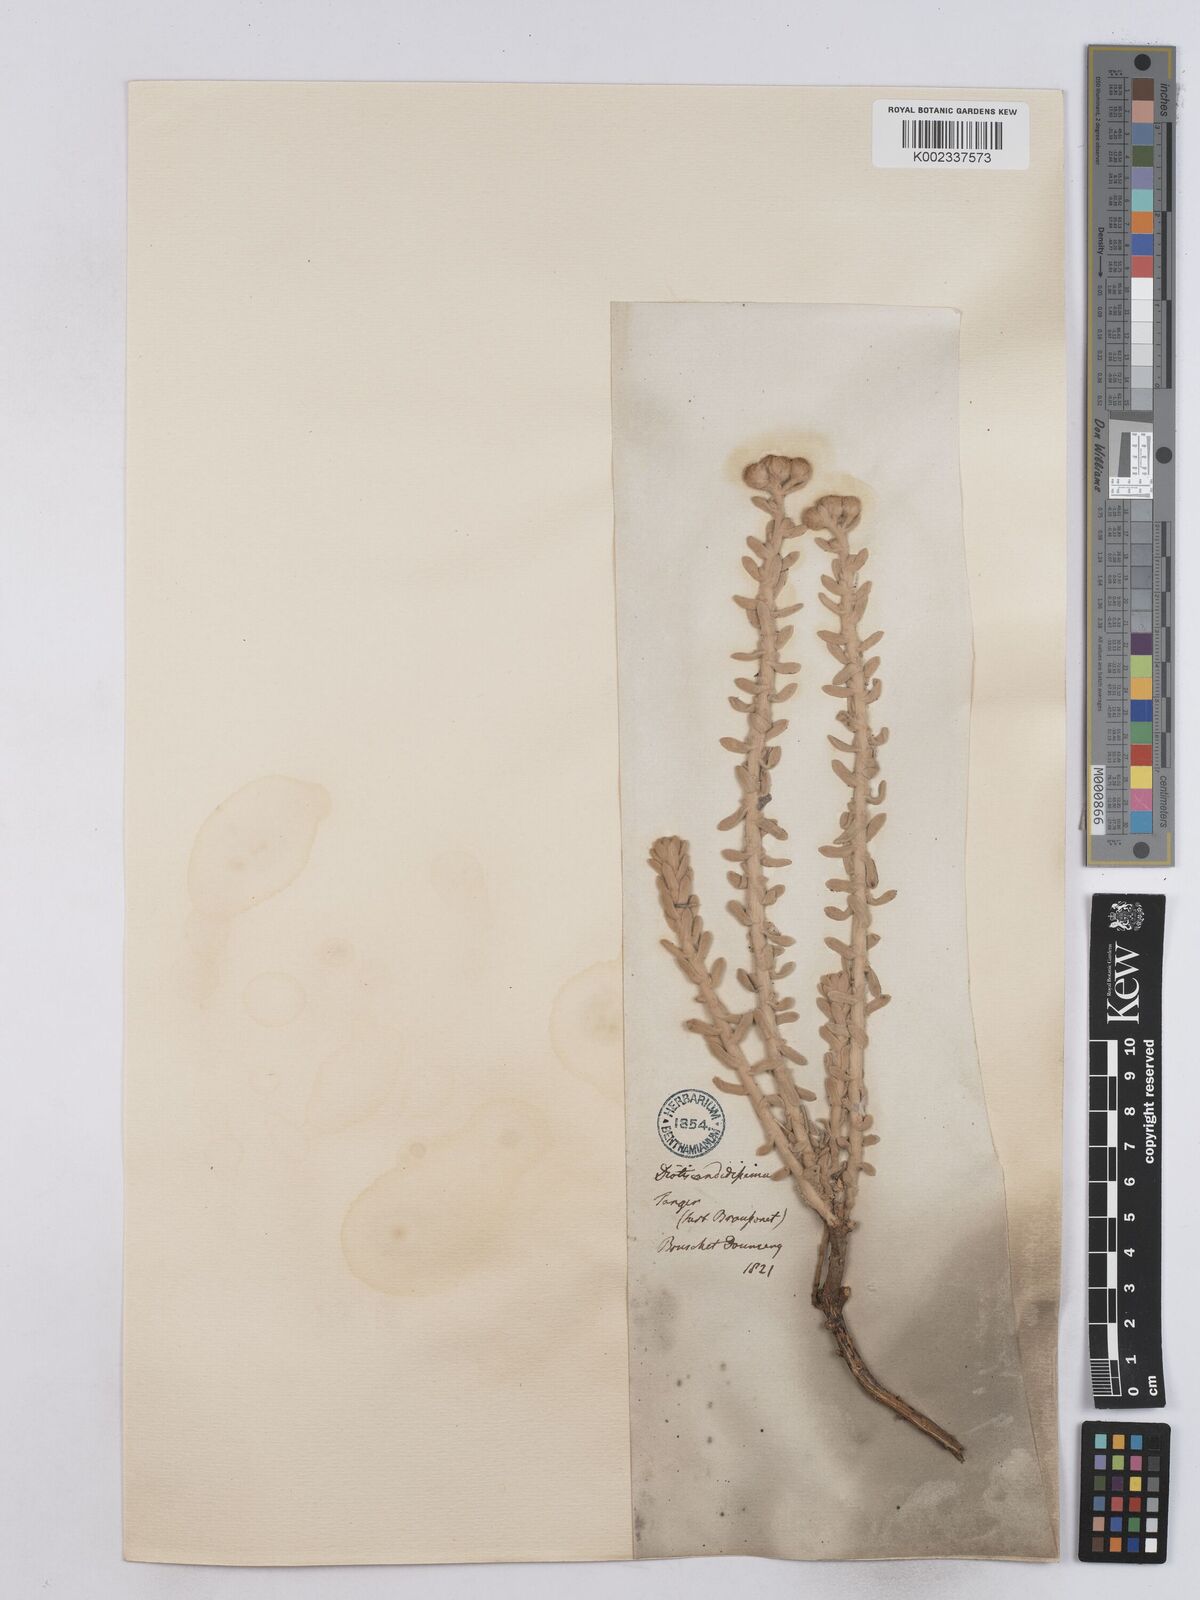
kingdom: Plantae
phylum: Tracheophyta
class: Magnoliopsida
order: Asterales
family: Asteraceae
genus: Achillea
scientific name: Achillea maritima
